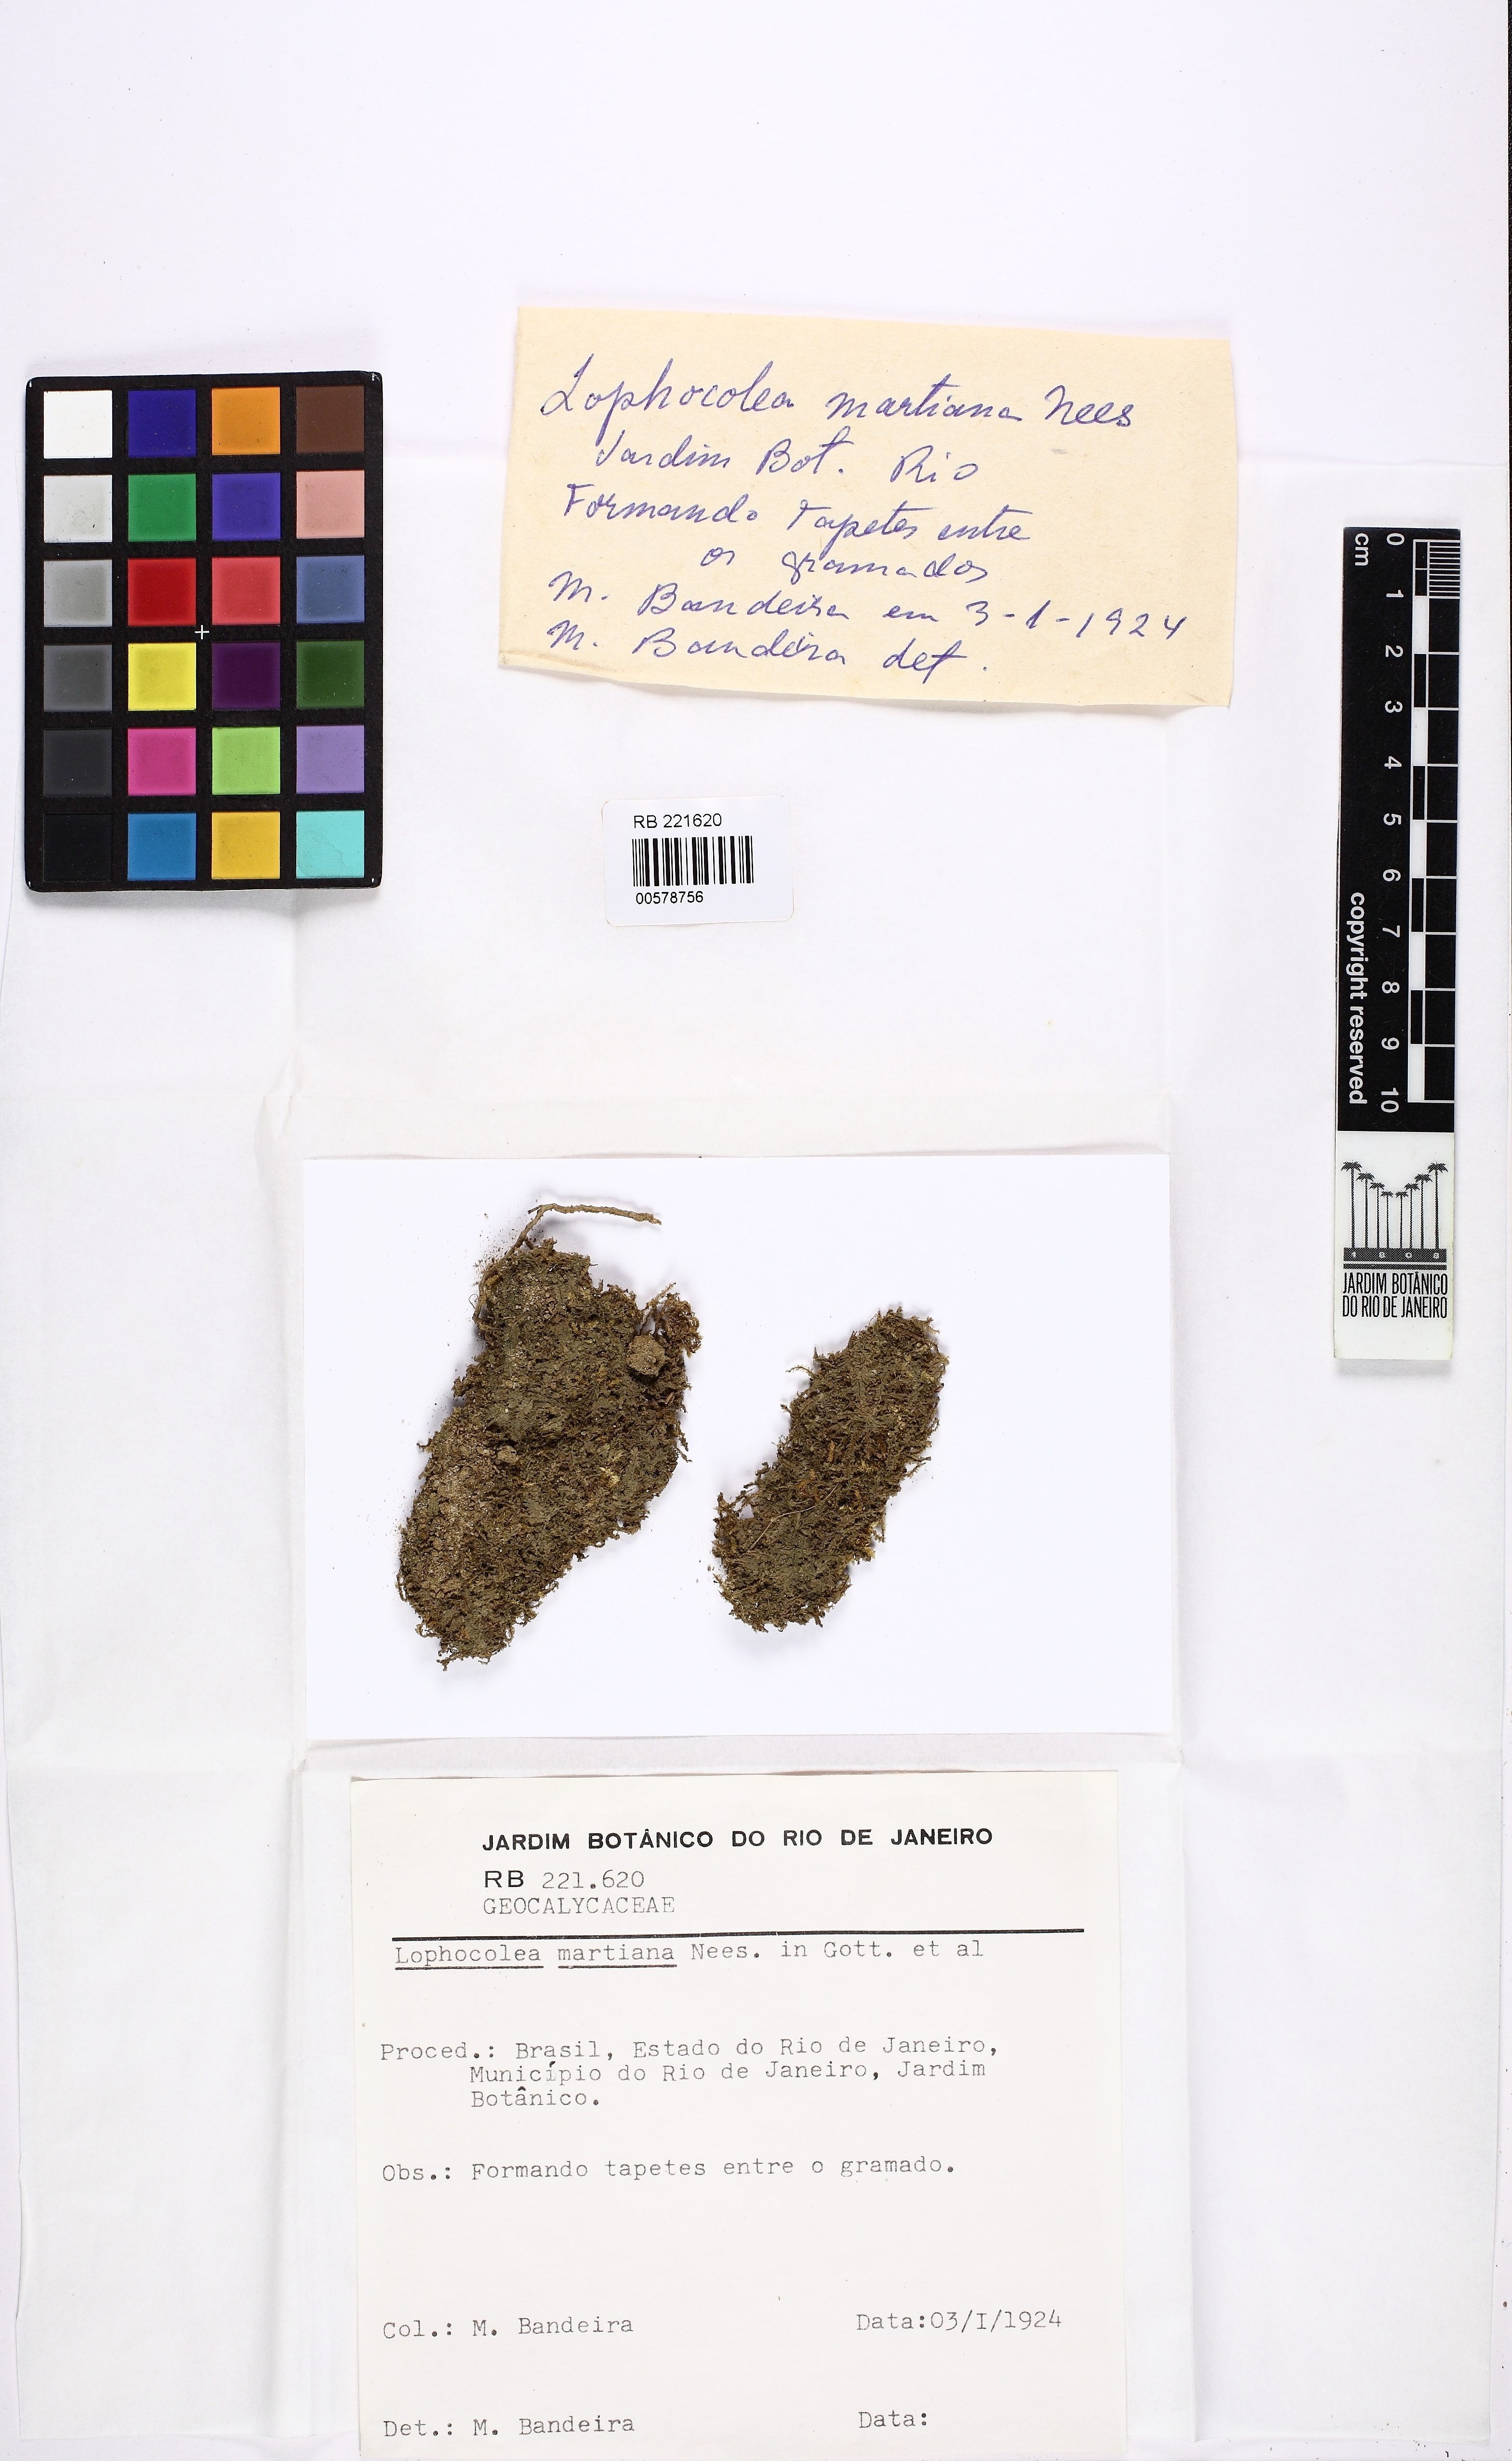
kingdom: Plantae
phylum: Marchantiophyta
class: Jungermanniopsida
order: Jungermanniales
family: Lophocoleaceae
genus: Cryptolophocolea
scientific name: Cryptolophocolea martiana
